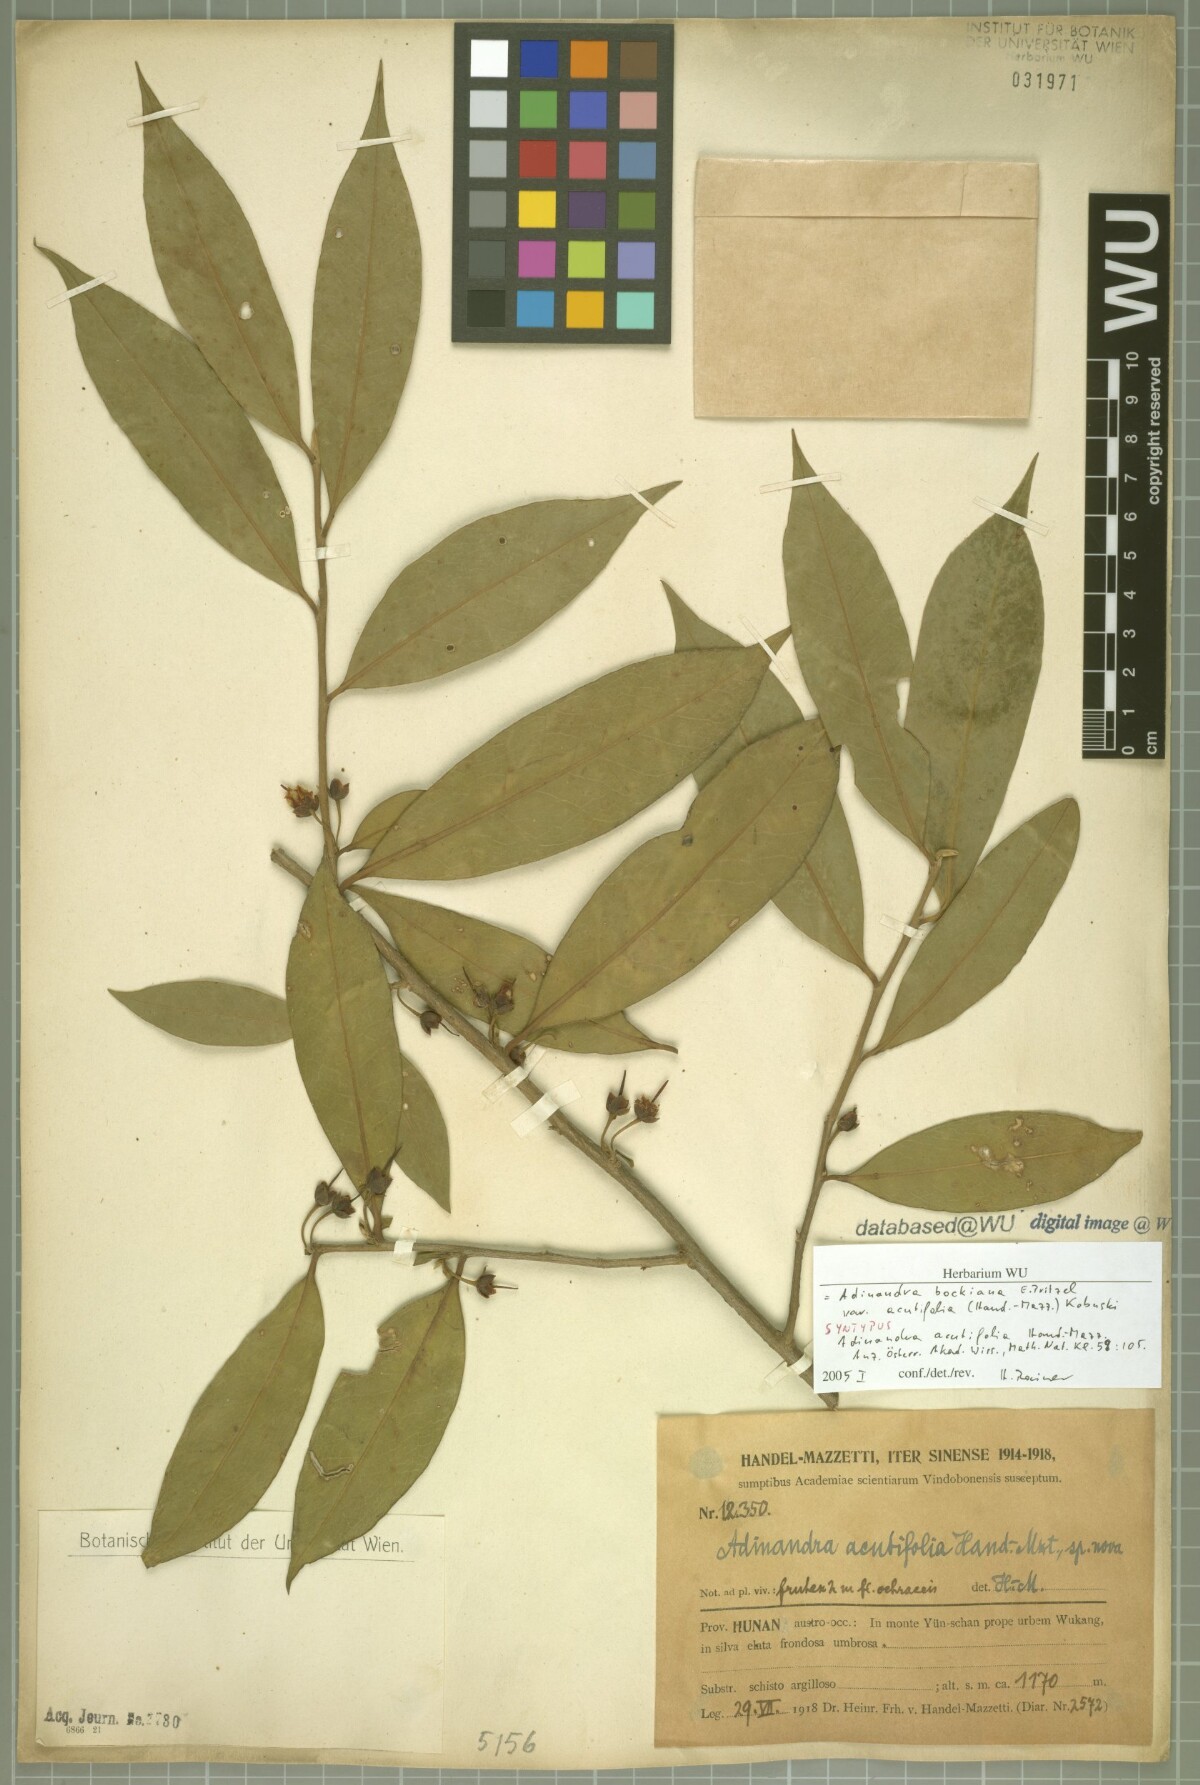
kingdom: Plantae
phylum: Tracheophyta
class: Magnoliopsida
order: Ericales
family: Pentaphylacaceae
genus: Adinandra
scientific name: Adinandra bockiana
